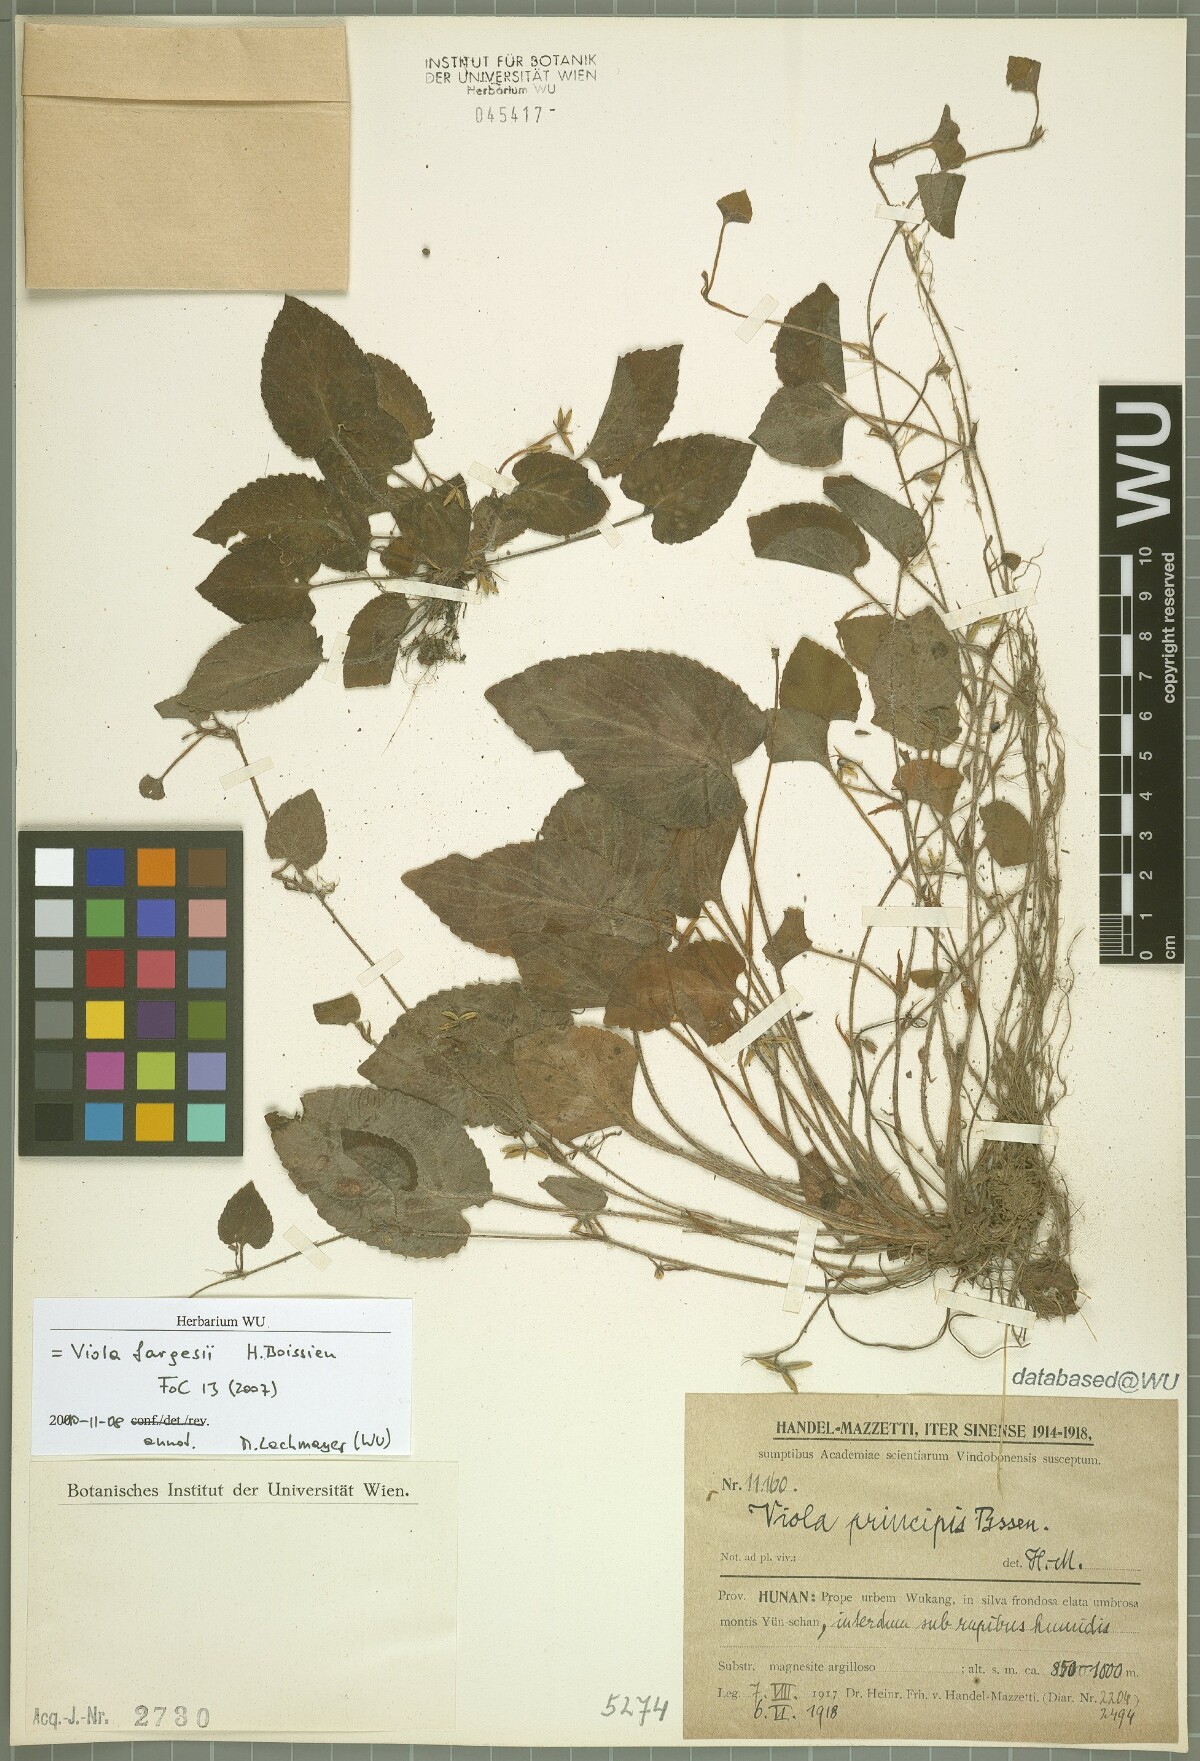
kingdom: Plantae
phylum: Tracheophyta
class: Magnoliopsida
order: Malpighiales
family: Violaceae
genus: Viola
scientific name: Viola fargesii
